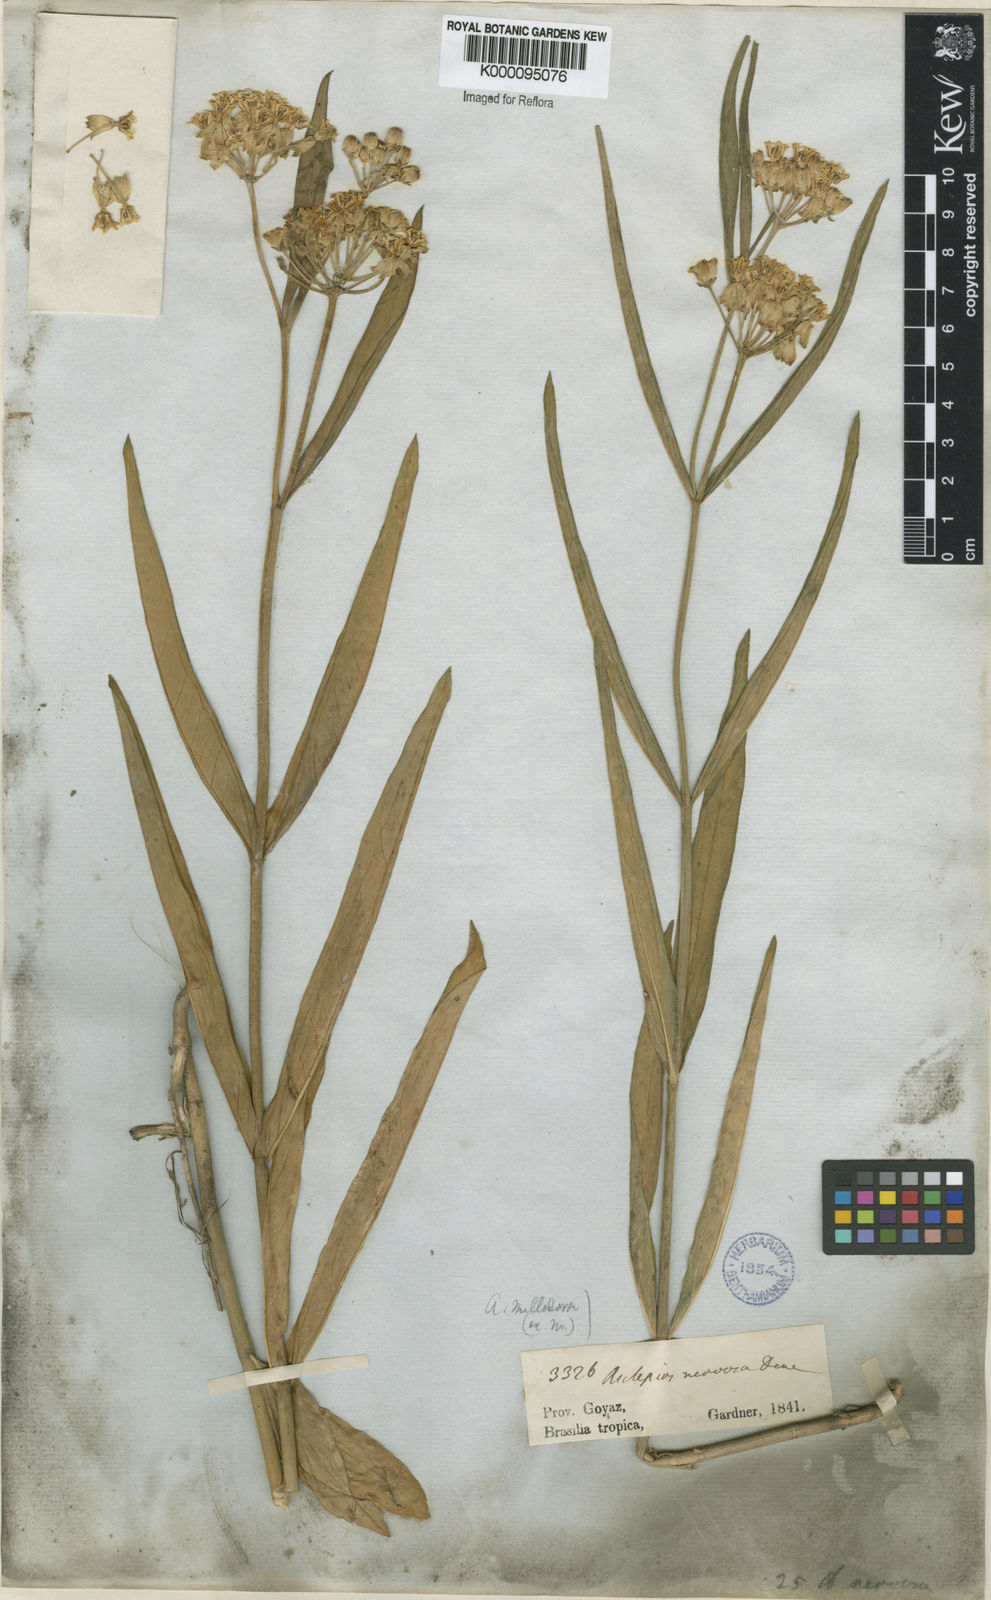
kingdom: Plantae
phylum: Tracheophyta
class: Magnoliopsida
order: Gentianales
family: Apocynaceae
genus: Asclepias
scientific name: Asclepias mellodora
